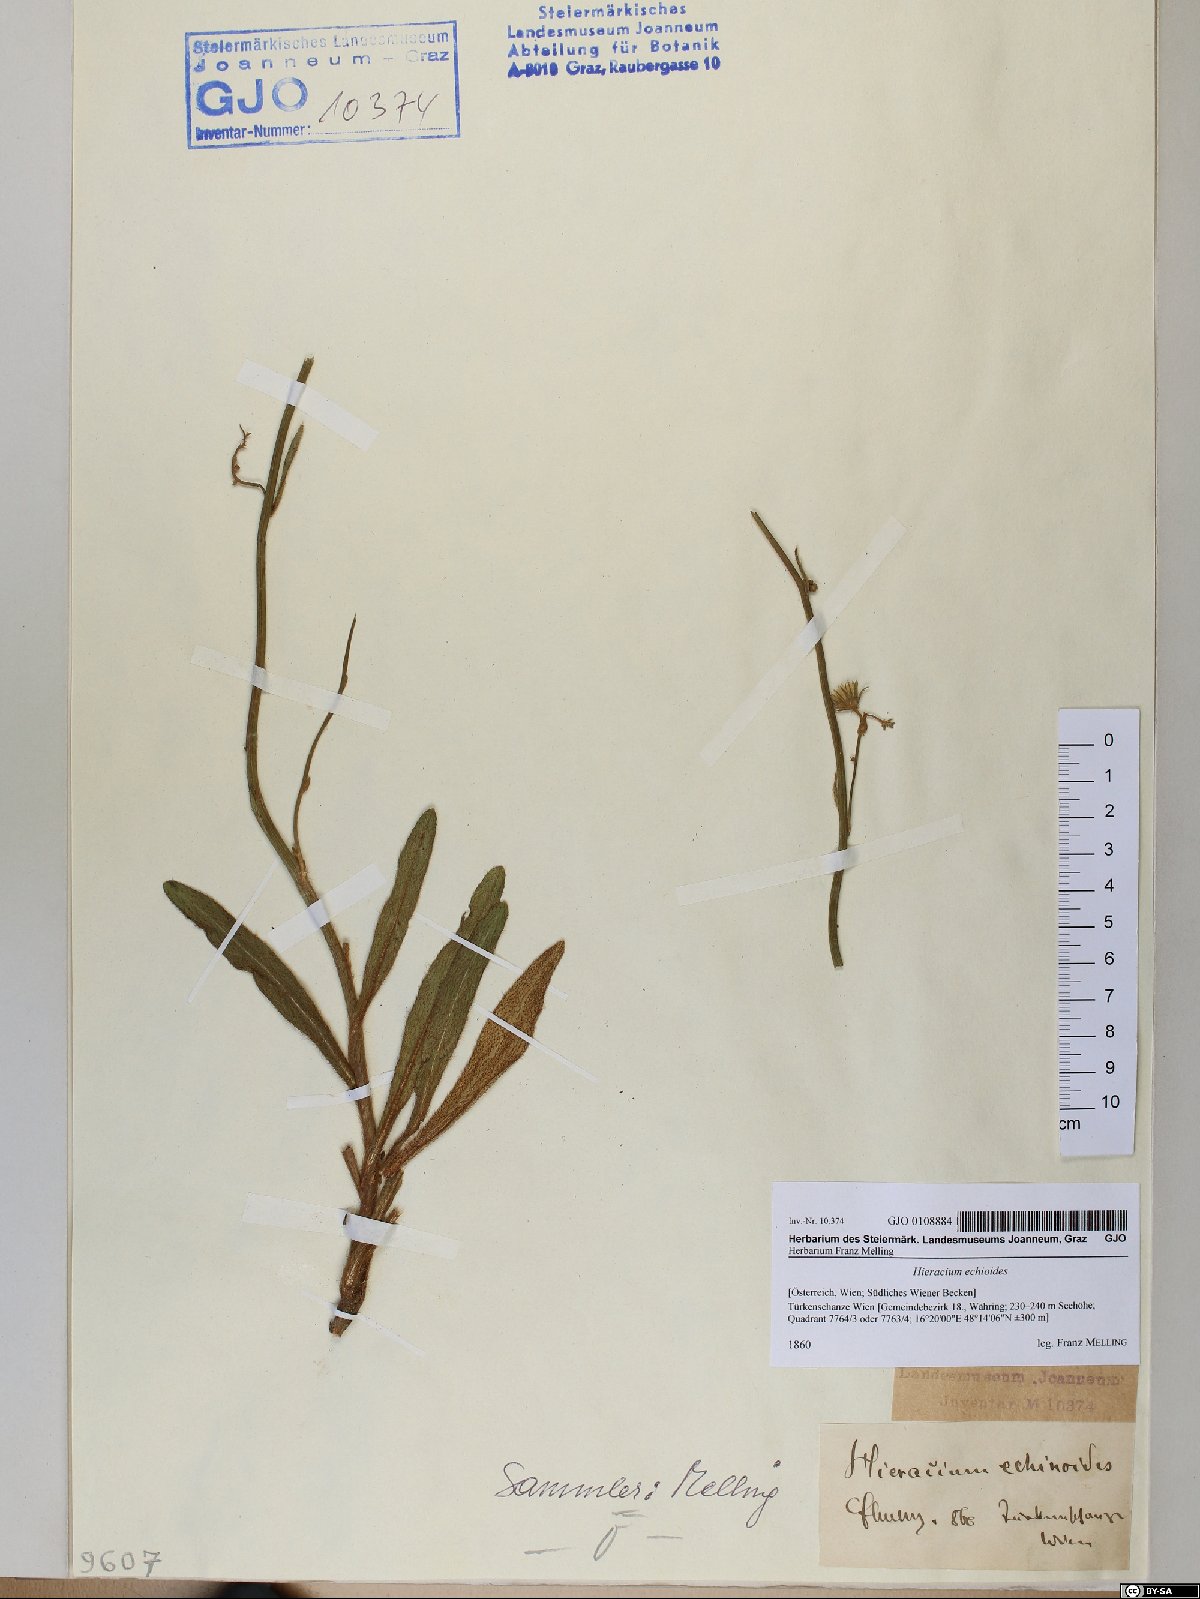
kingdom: Plantae
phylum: Tracheophyta
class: Magnoliopsida
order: Asterales
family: Asteraceae
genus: Pilosella
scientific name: Pilosella echioides
